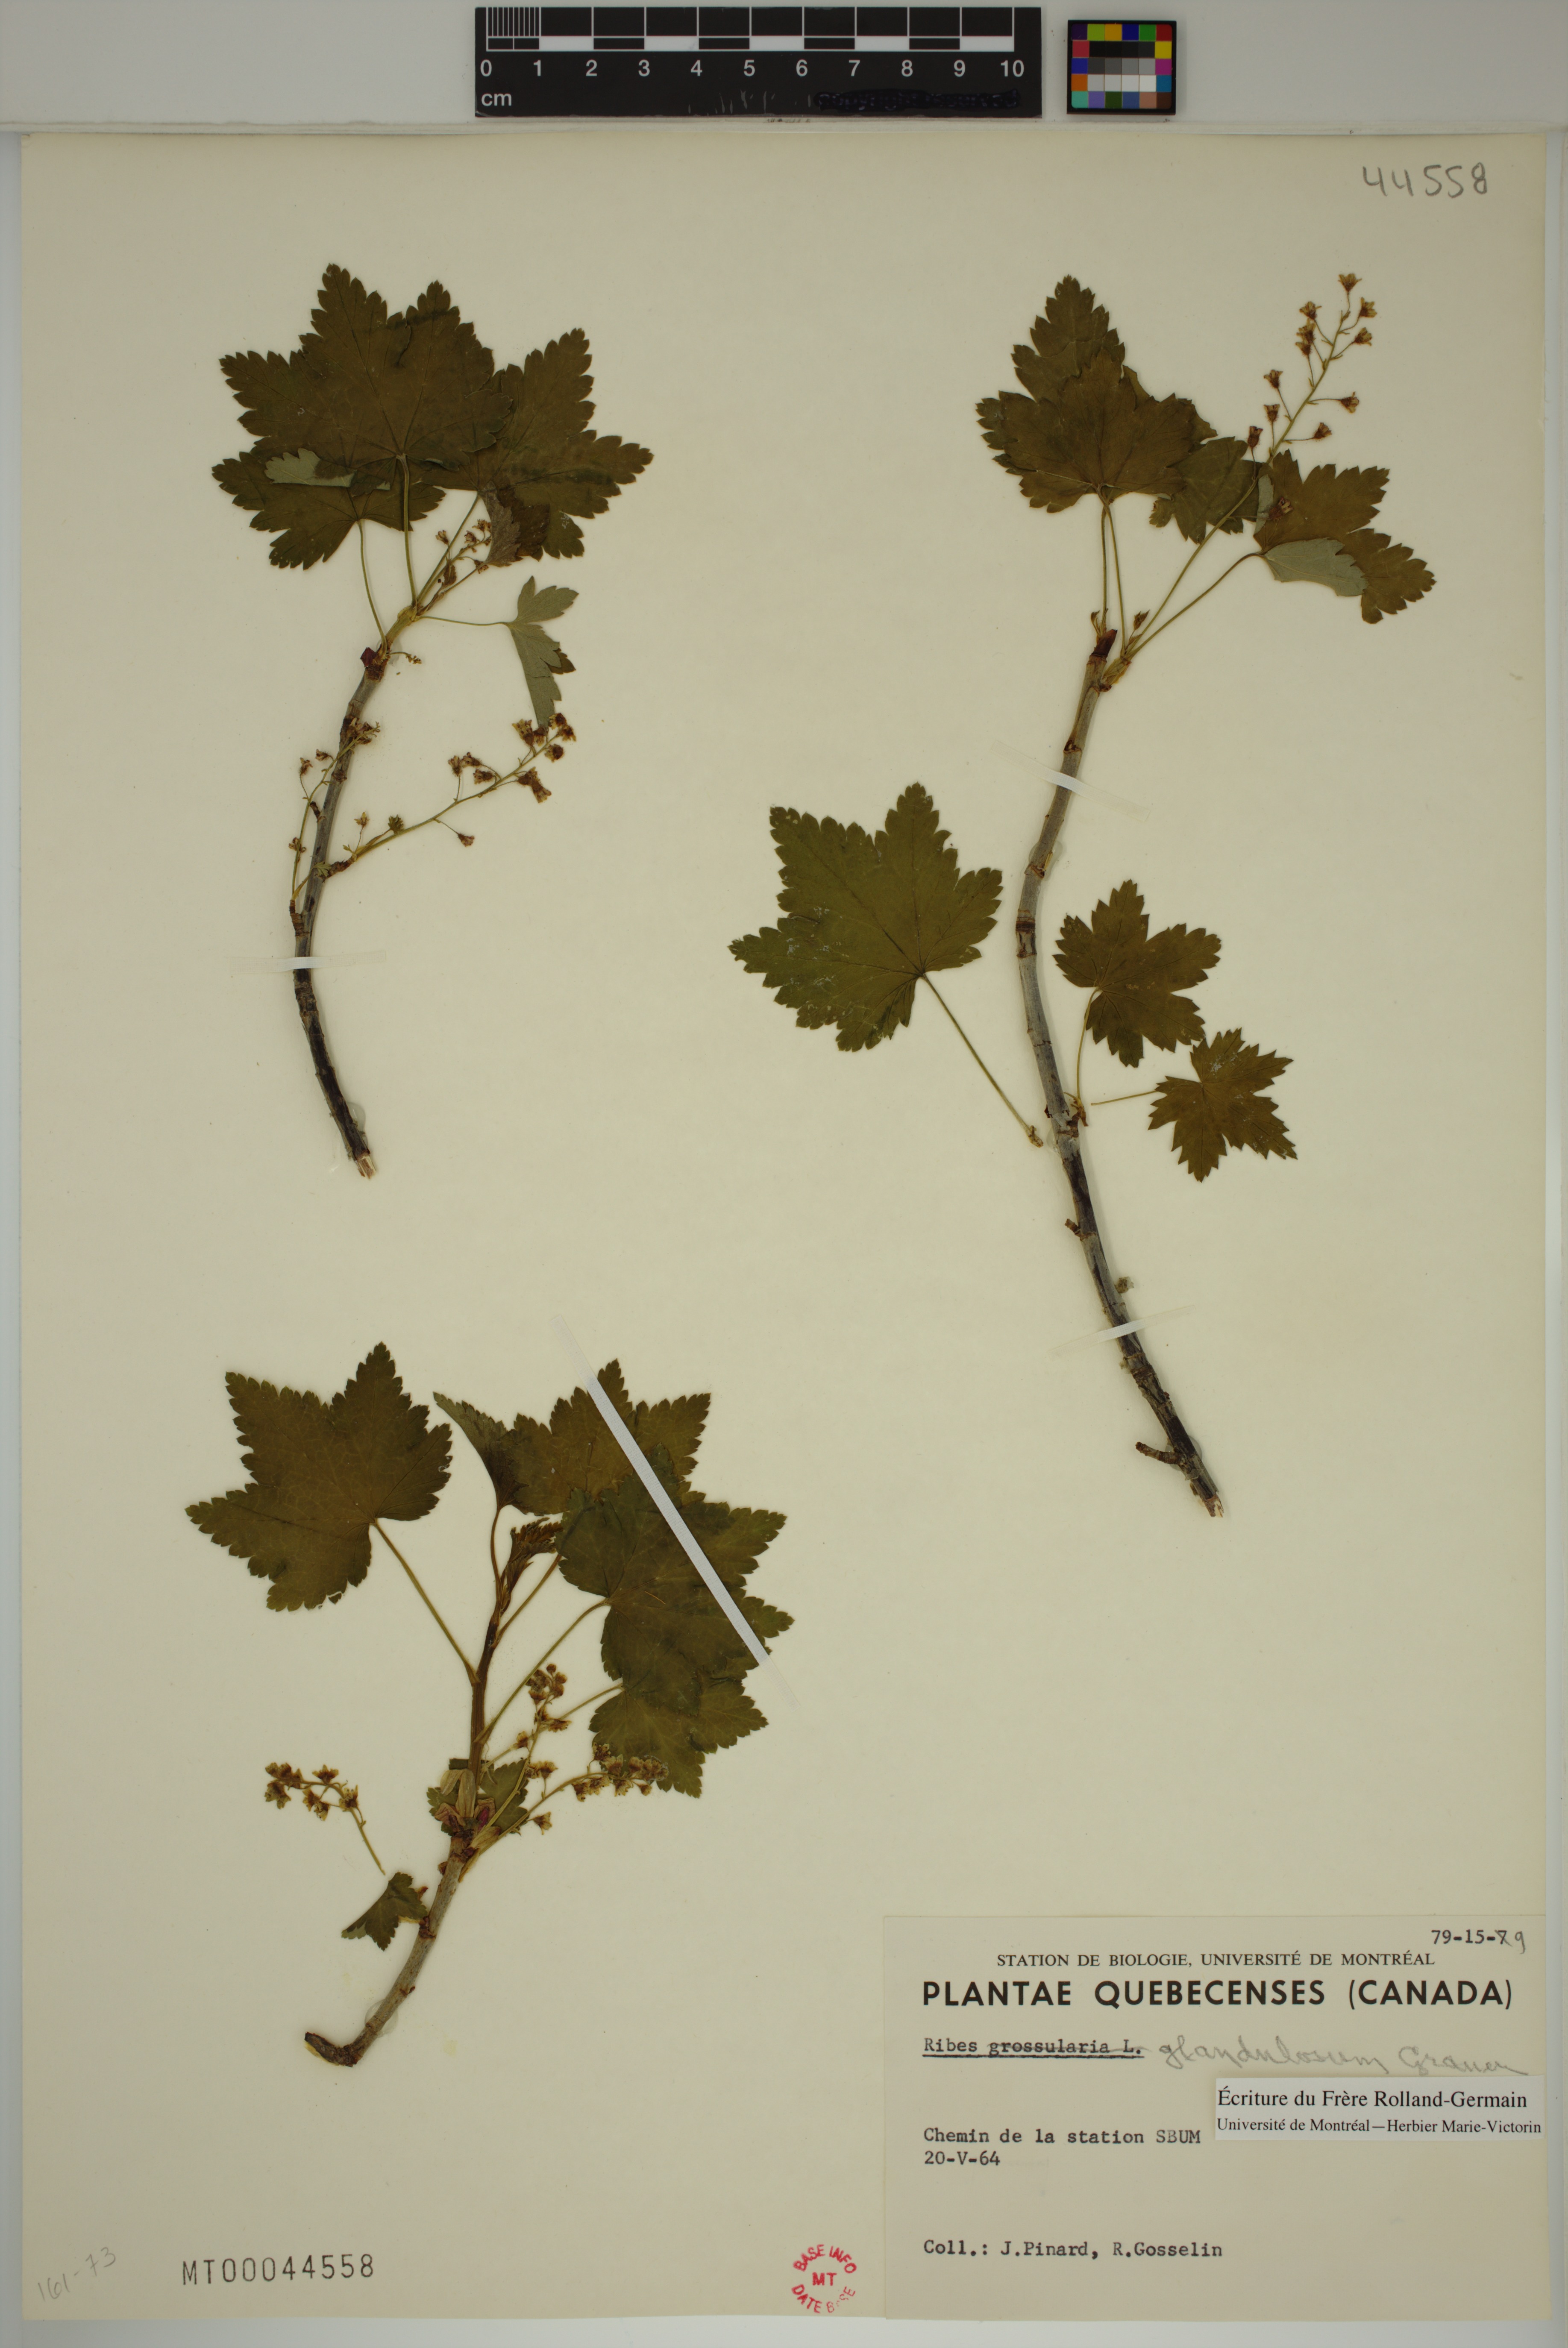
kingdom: Plantae
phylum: Tracheophyta
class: Magnoliopsida
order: Saxifragales
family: Grossulariaceae
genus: Ribes
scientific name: Ribes glandulosum
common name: Skunk currant
